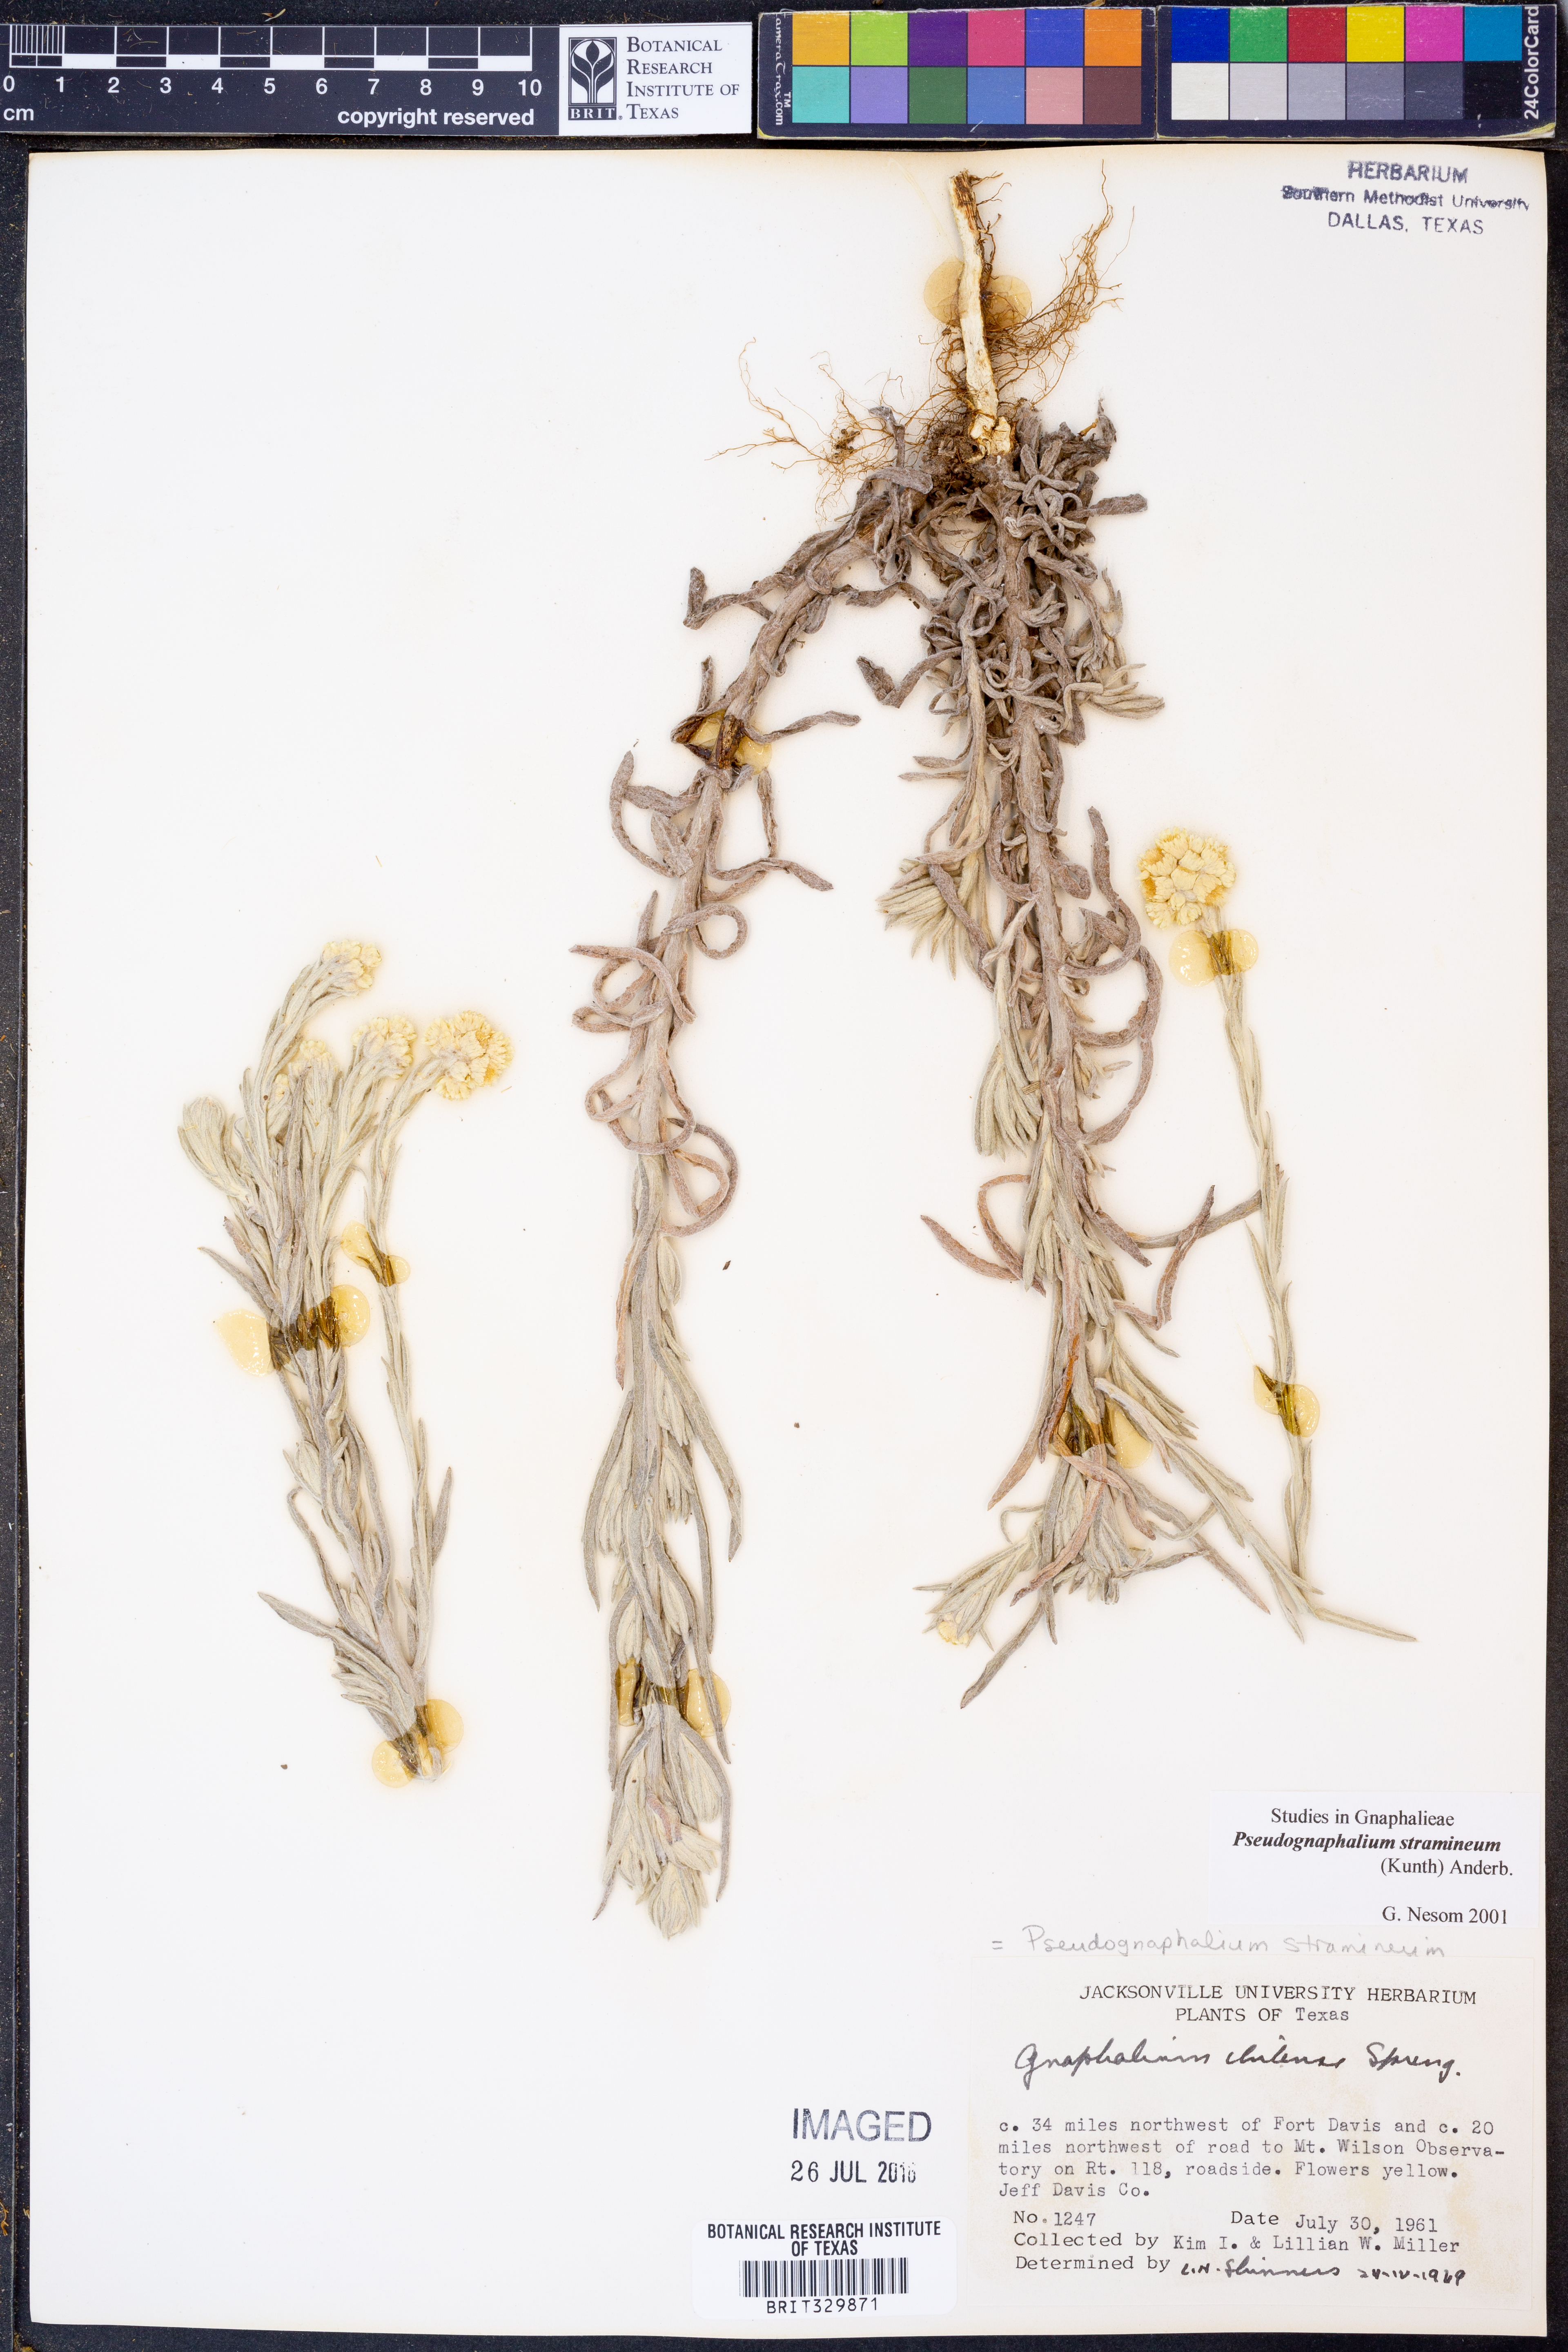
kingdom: Plantae
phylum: Tracheophyta
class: Magnoliopsida
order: Asterales
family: Asteraceae
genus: Pseudognaphalium
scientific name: Pseudognaphalium stramineum
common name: Cotton-batting-plant
